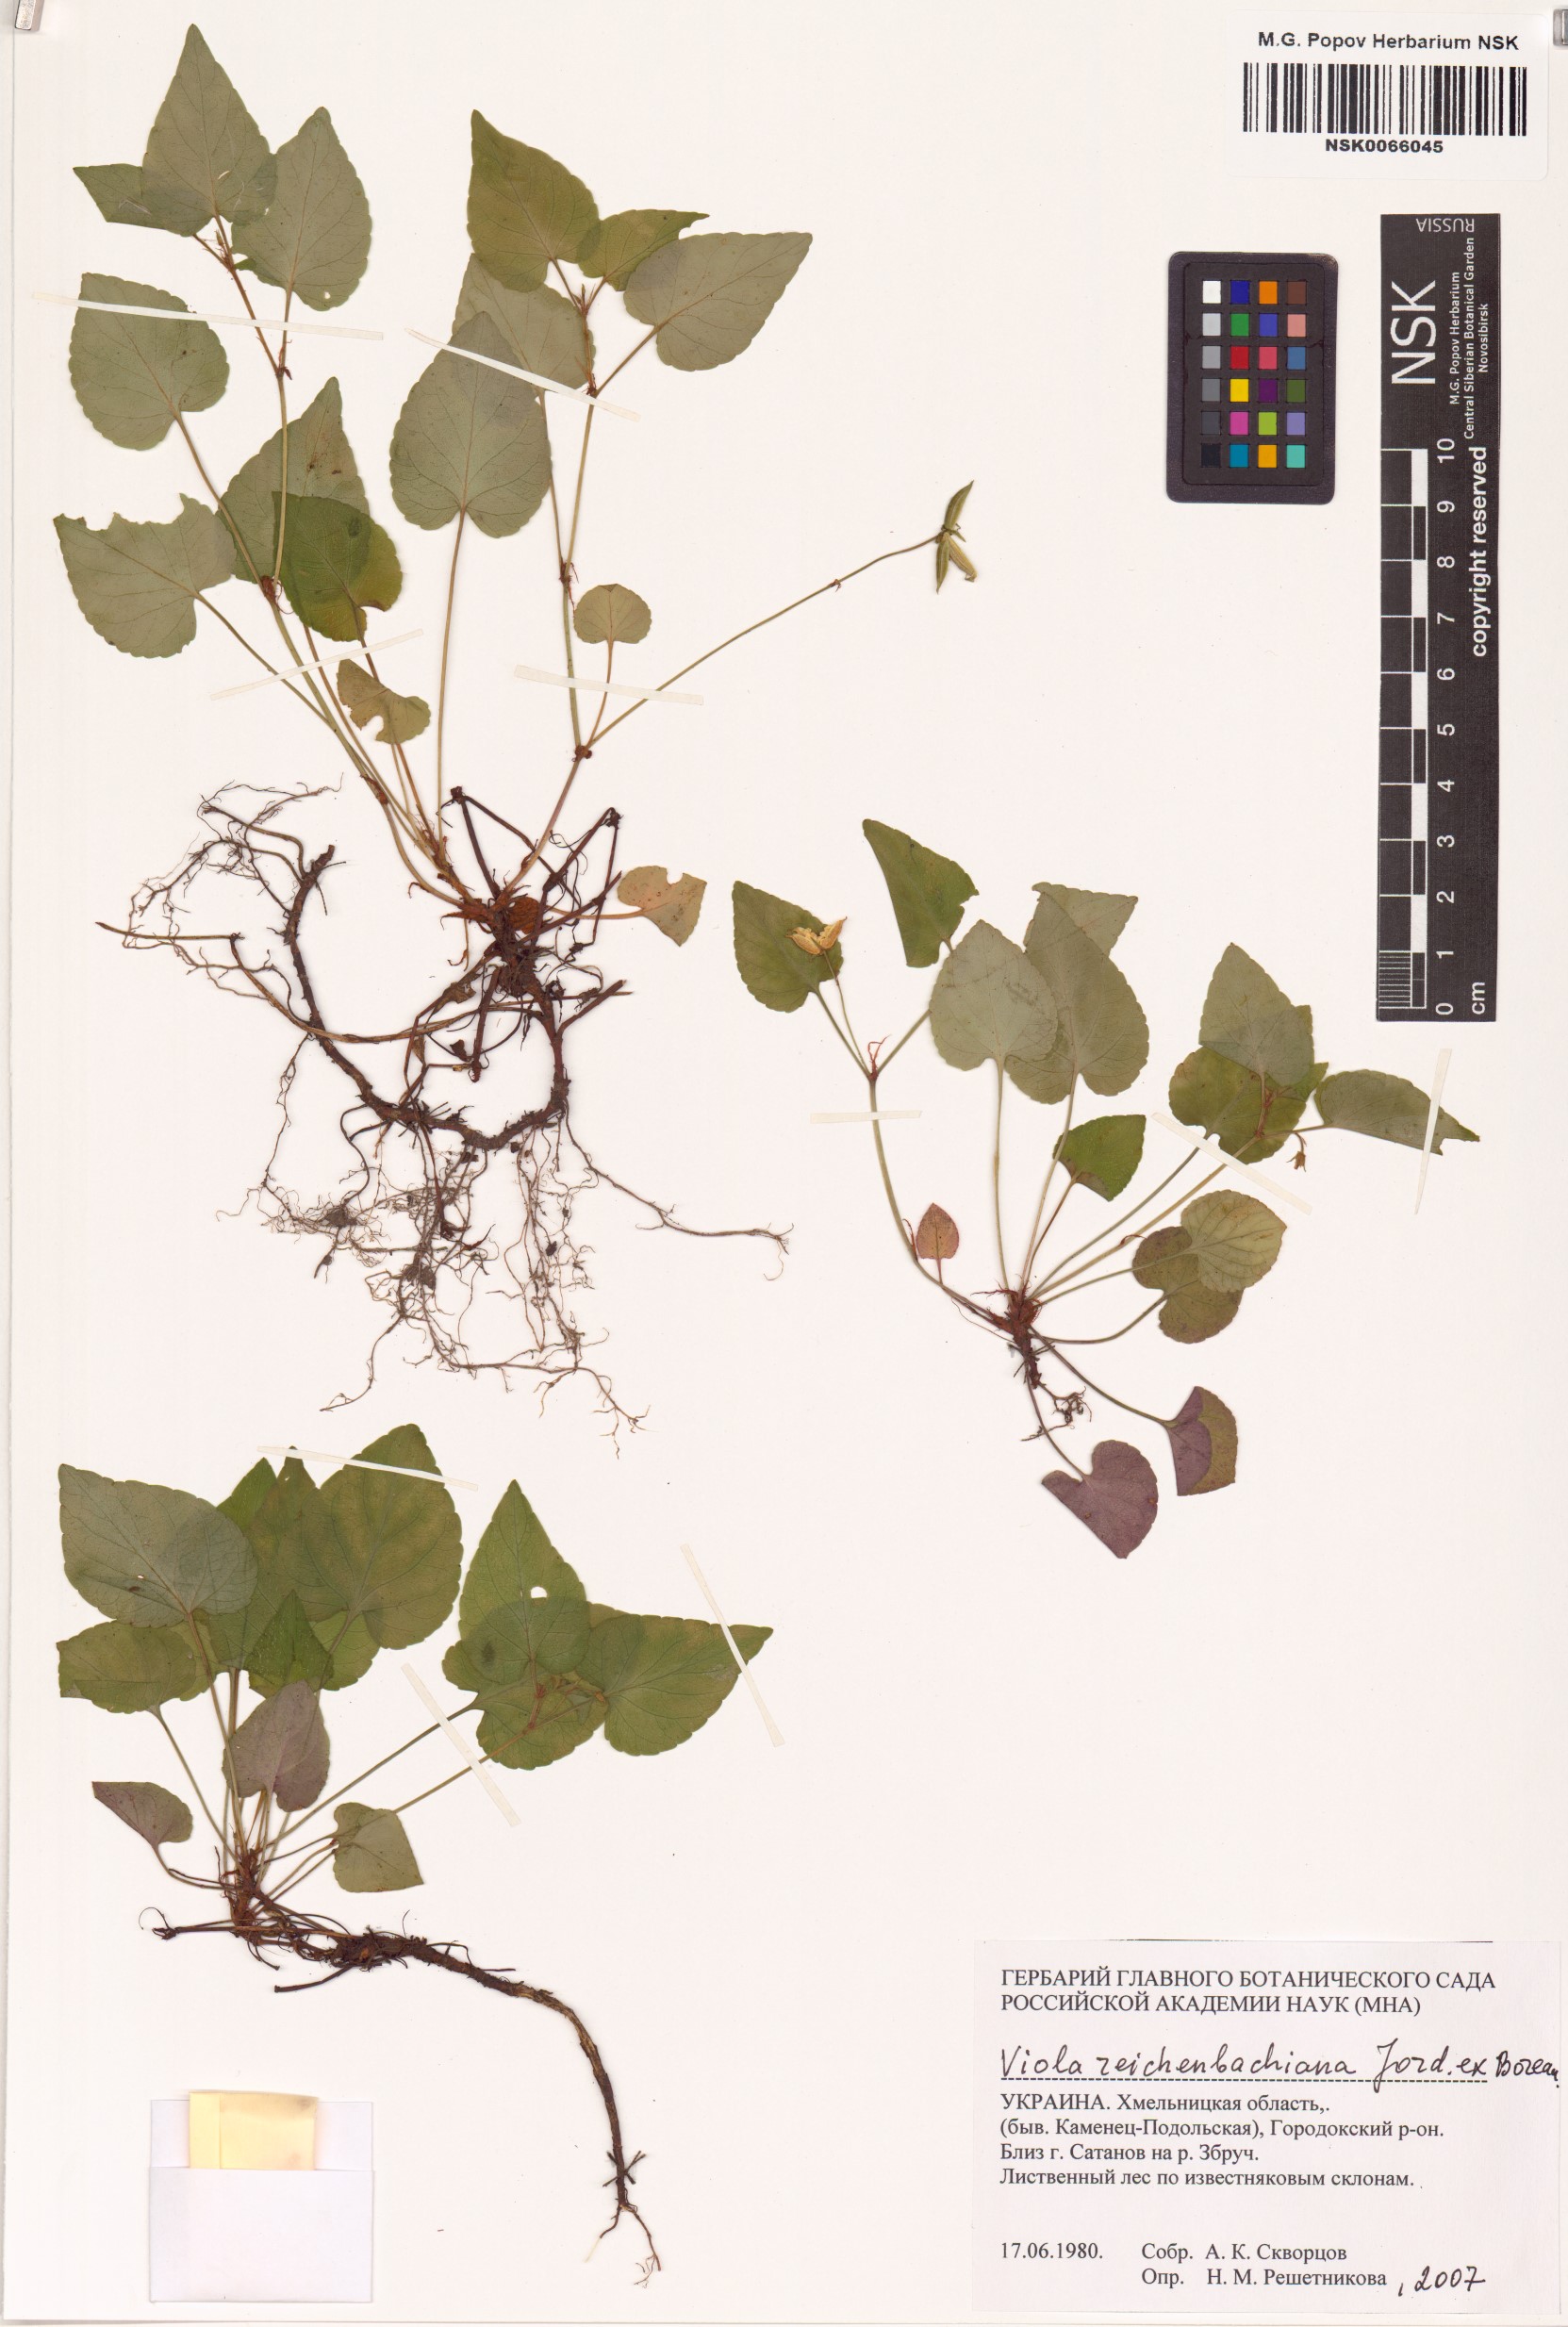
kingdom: Plantae
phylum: Tracheophyta
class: Magnoliopsida
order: Malpighiales
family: Violaceae
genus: Viola
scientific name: Viola reichenbachiana
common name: Early dog-violet
